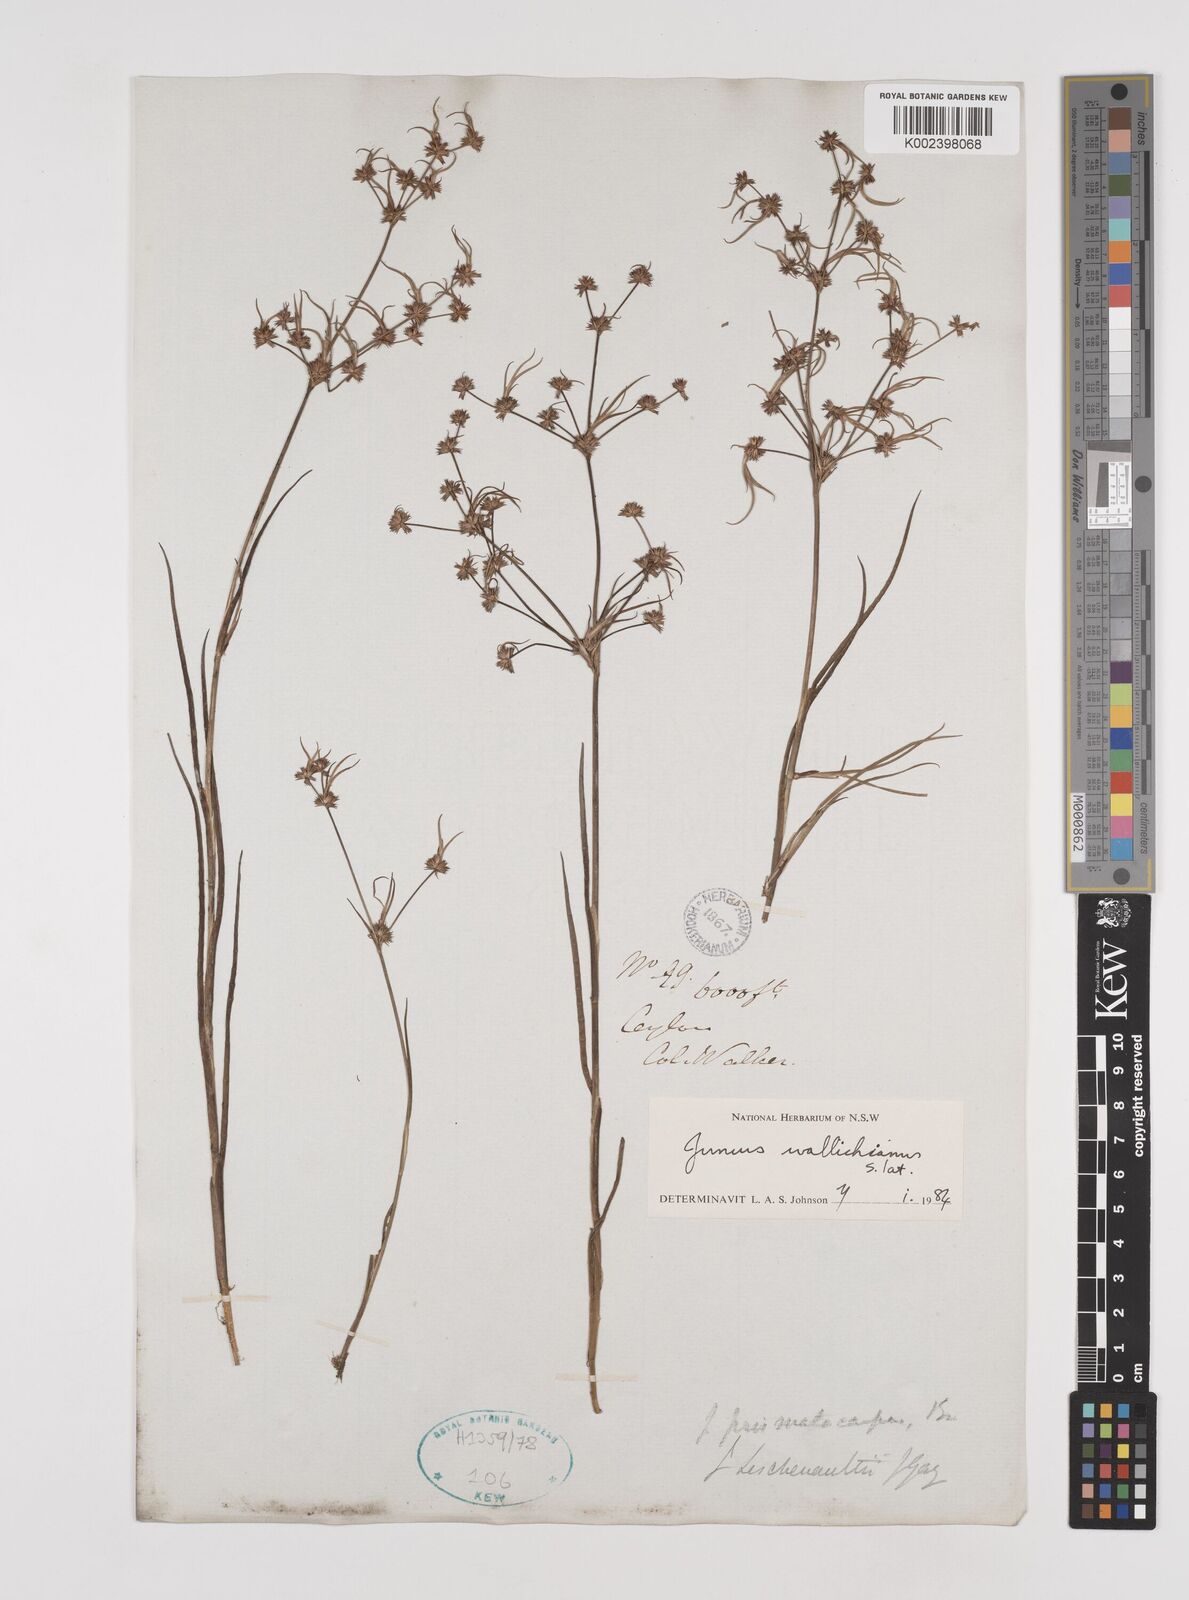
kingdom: Plantae
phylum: Tracheophyta
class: Liliopsida
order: Poales
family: Juncaceae
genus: Juncus
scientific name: Juncus wallichianus
